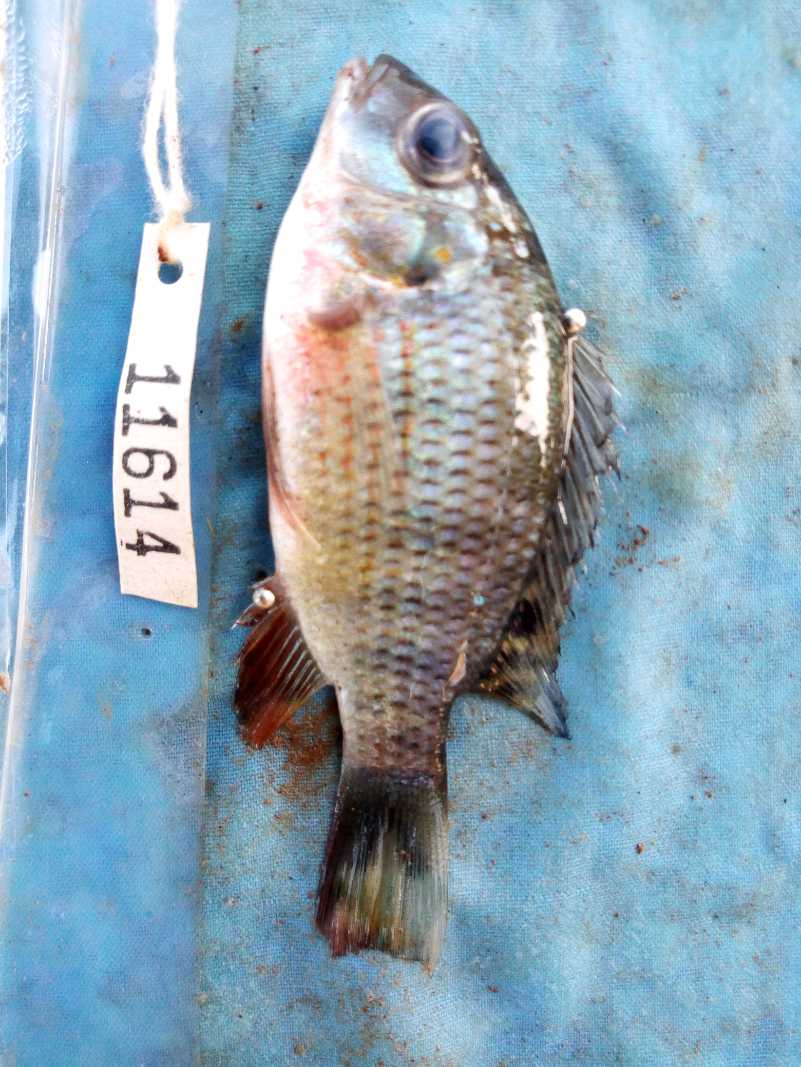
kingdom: Animalia
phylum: Chordata
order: Perciformes
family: Cichlidae
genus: Coptodon
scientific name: Coptodon rendalli
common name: Redbreast tilapia
